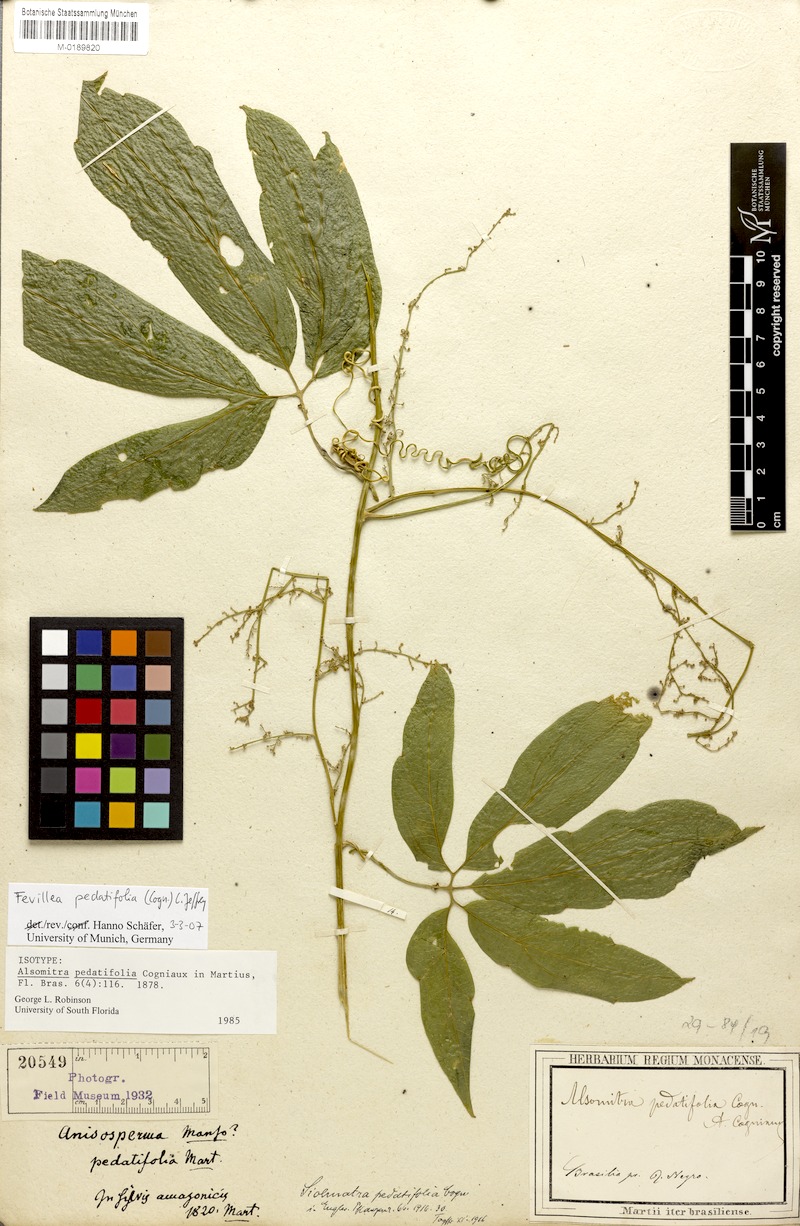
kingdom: Plantae
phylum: Tracheophyta
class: Magnoliopsida
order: Cucurbitales
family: Cucurbitaceae
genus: Fevillea
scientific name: Fevillea pedatifolia
